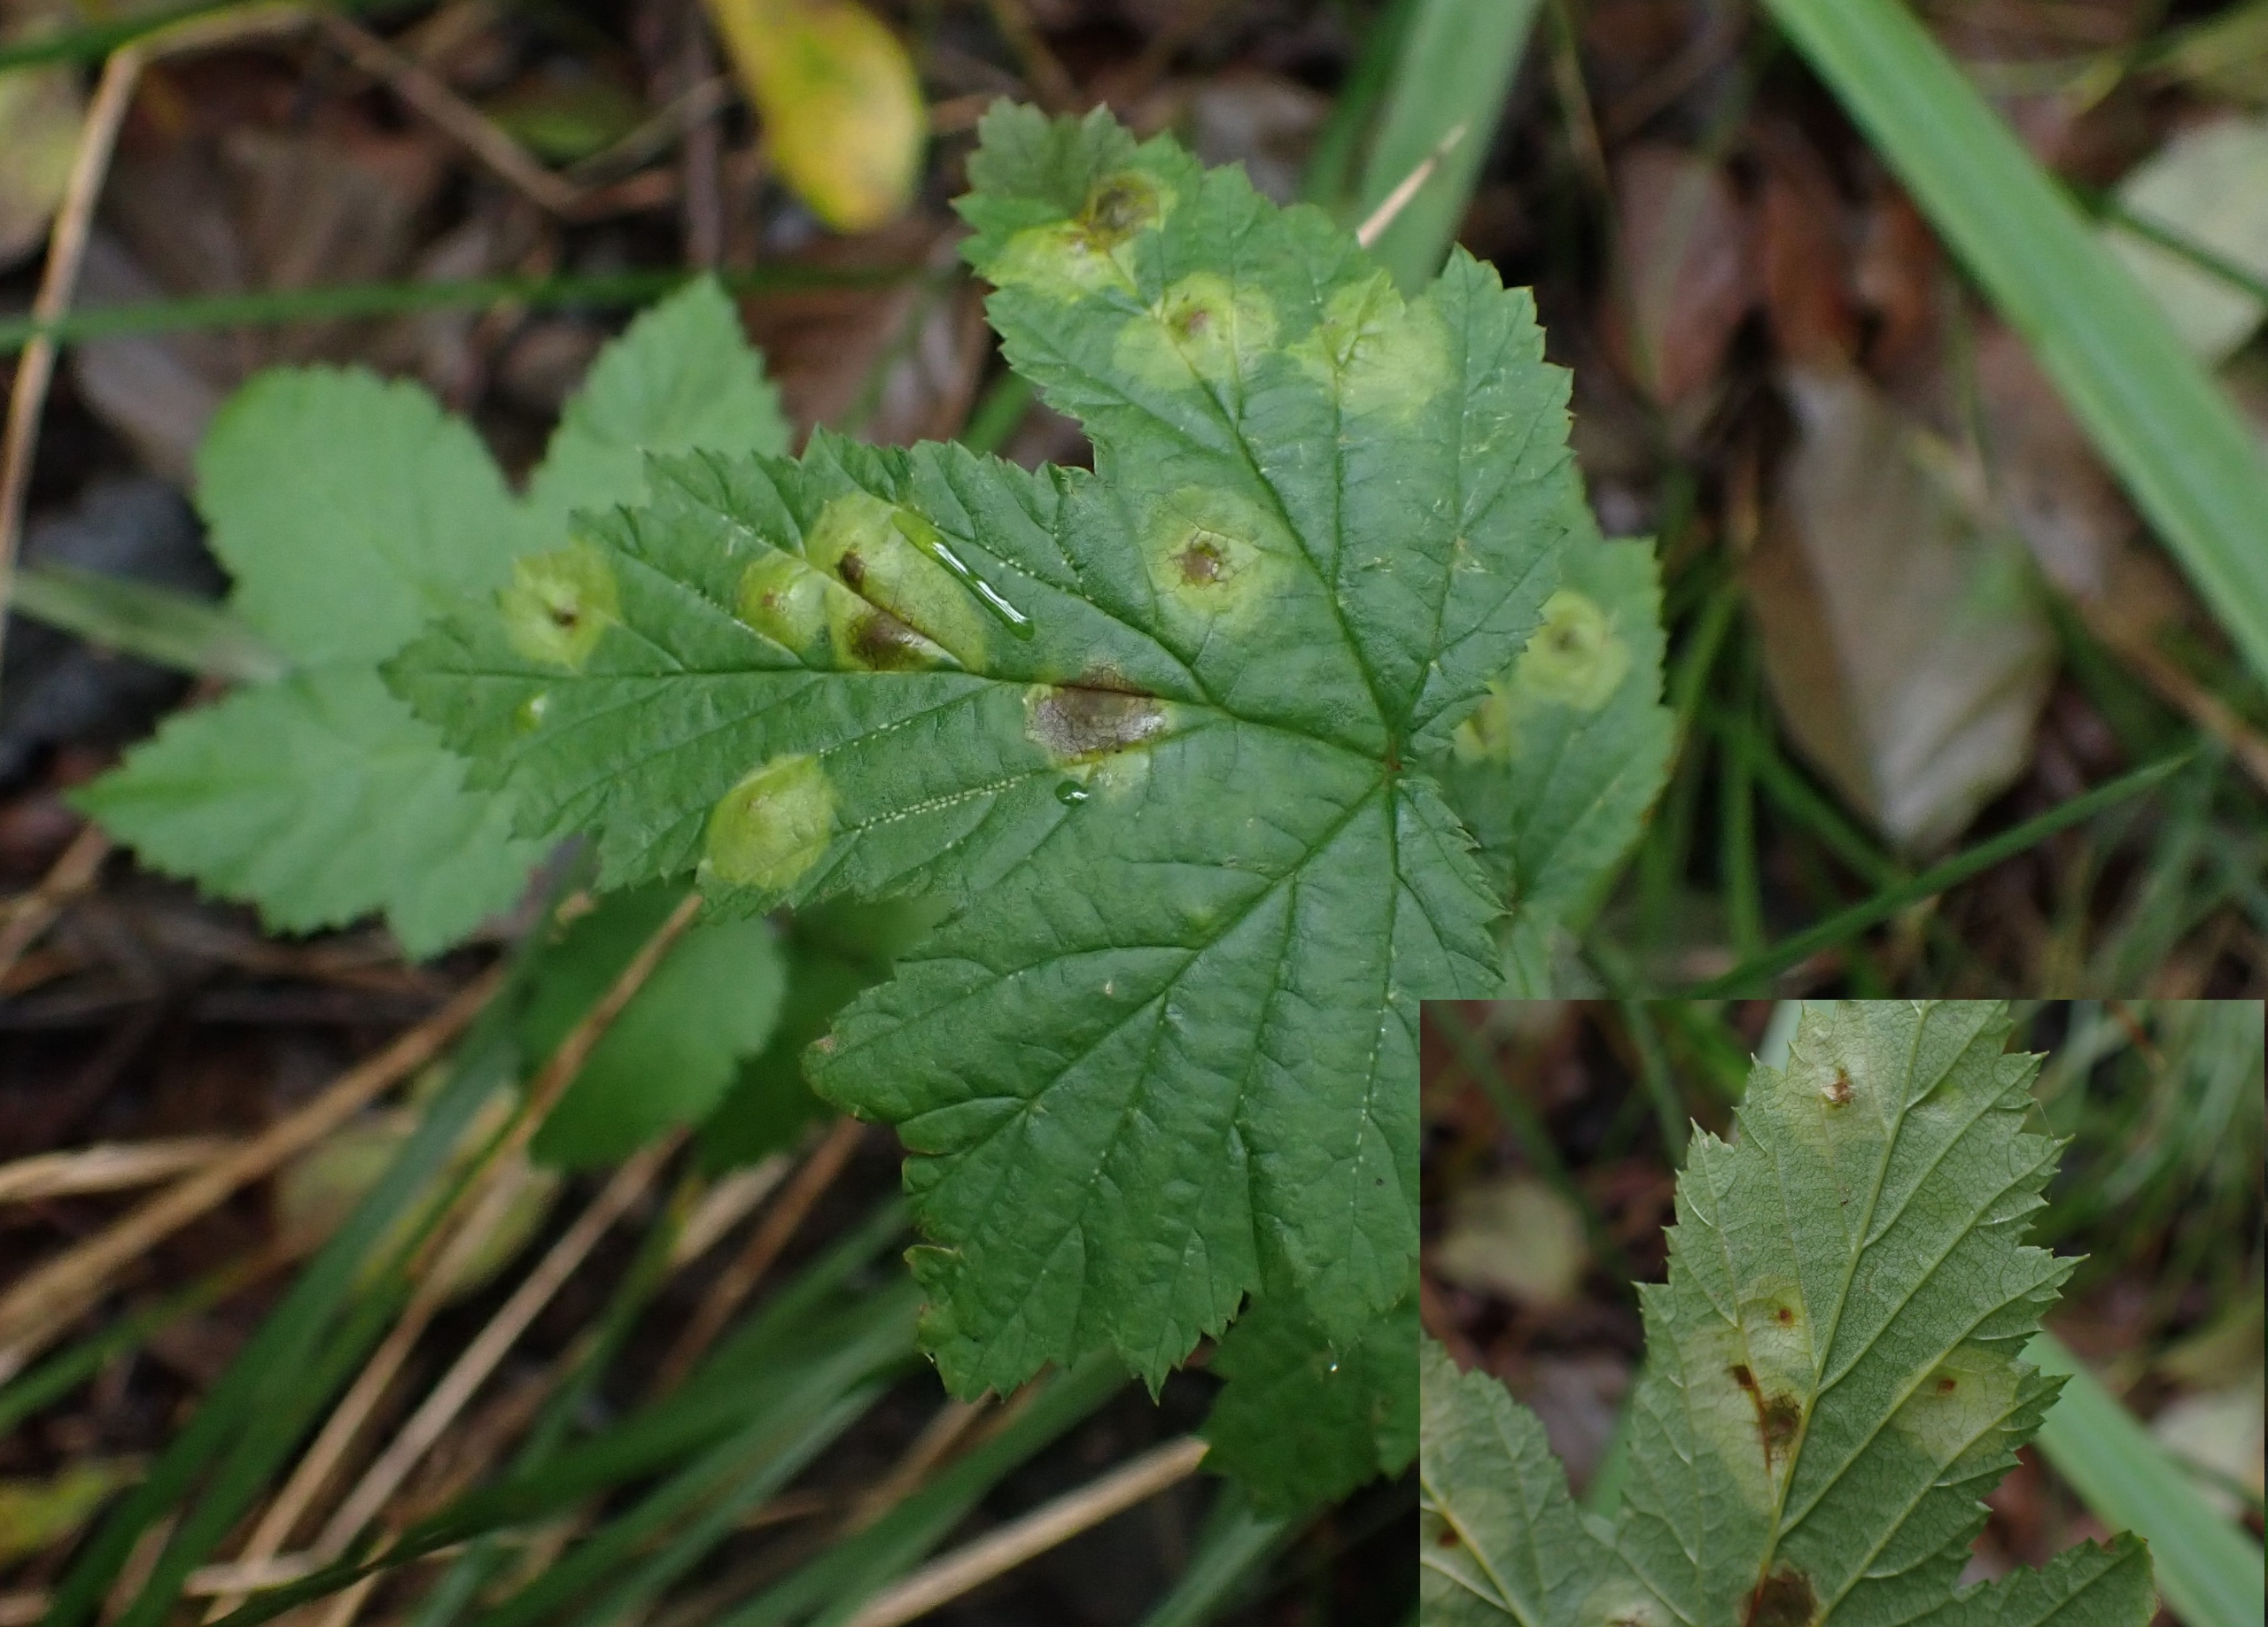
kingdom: Animalia
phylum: Arthropoda
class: Insecta
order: Diptera
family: Cecidomyiidae
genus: Dasineura
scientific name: Dasineura pustulans
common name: Mjødurtblistgalmyg
